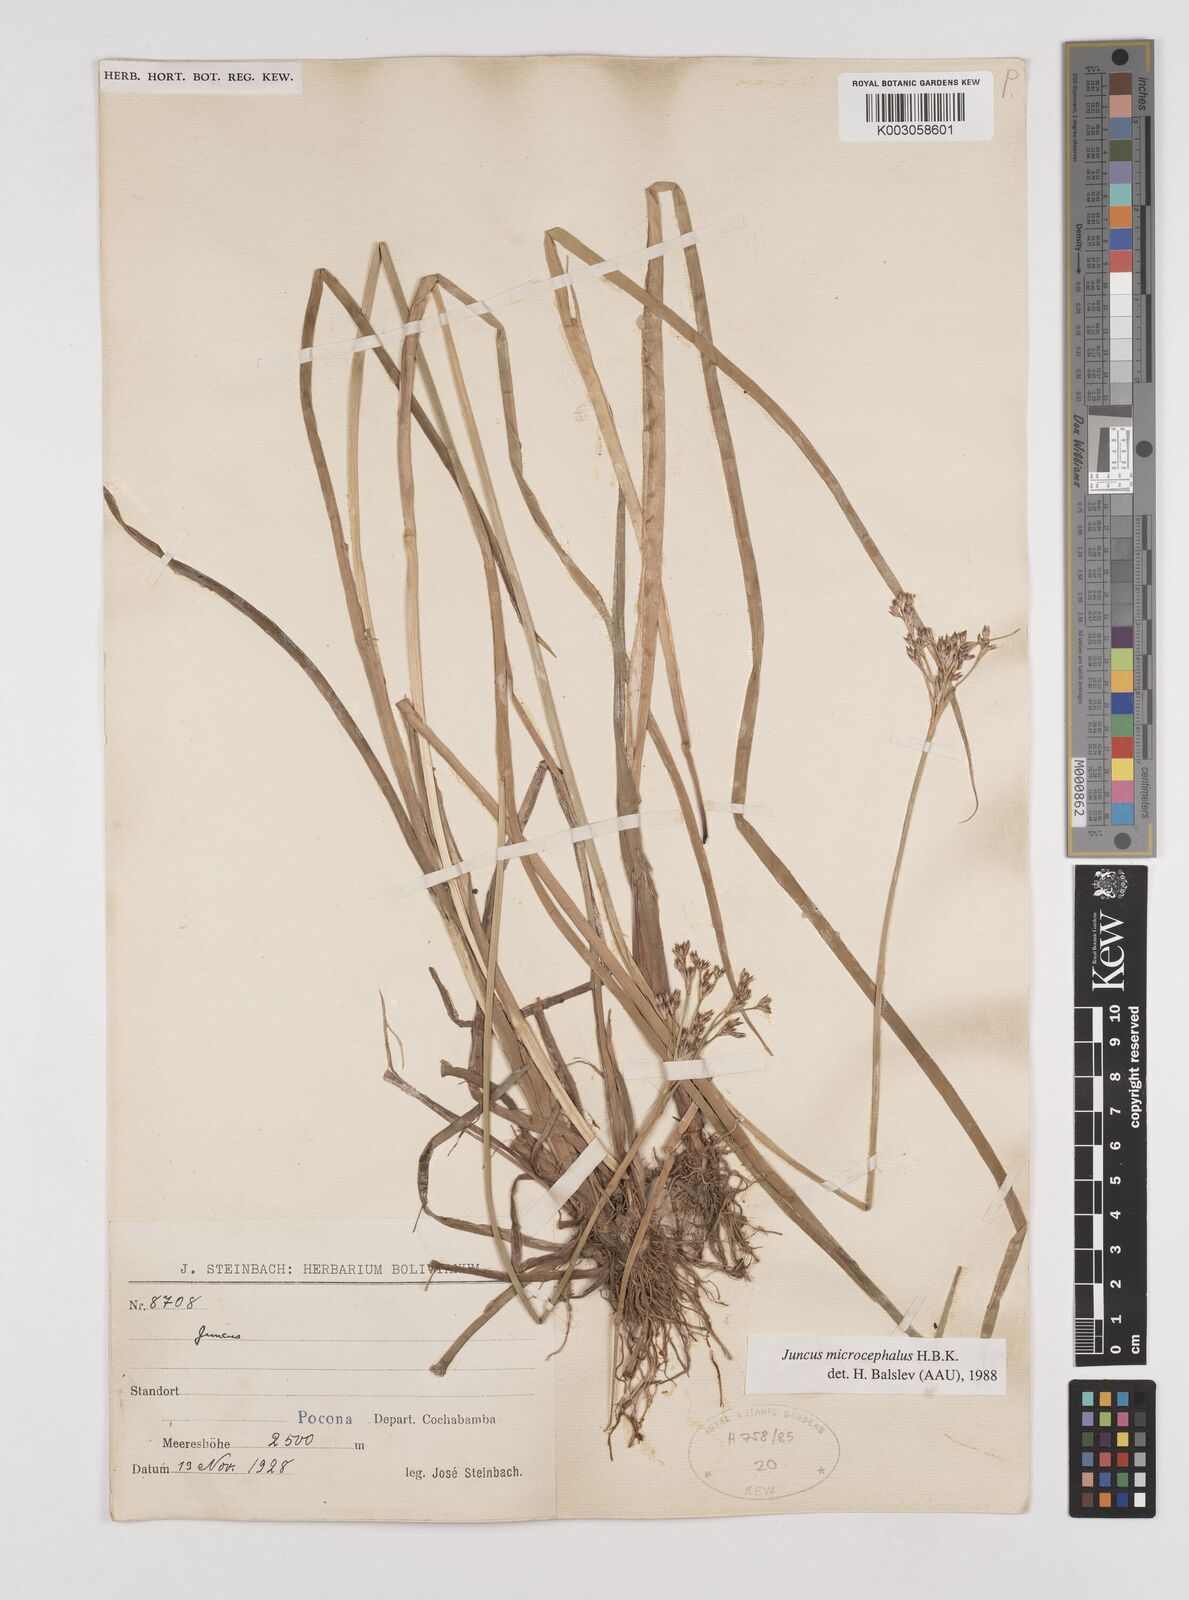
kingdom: Plantae
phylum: Tracheophyta
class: Liliopsida
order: Poales
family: Juncaceae
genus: Juncus
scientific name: Juncus
